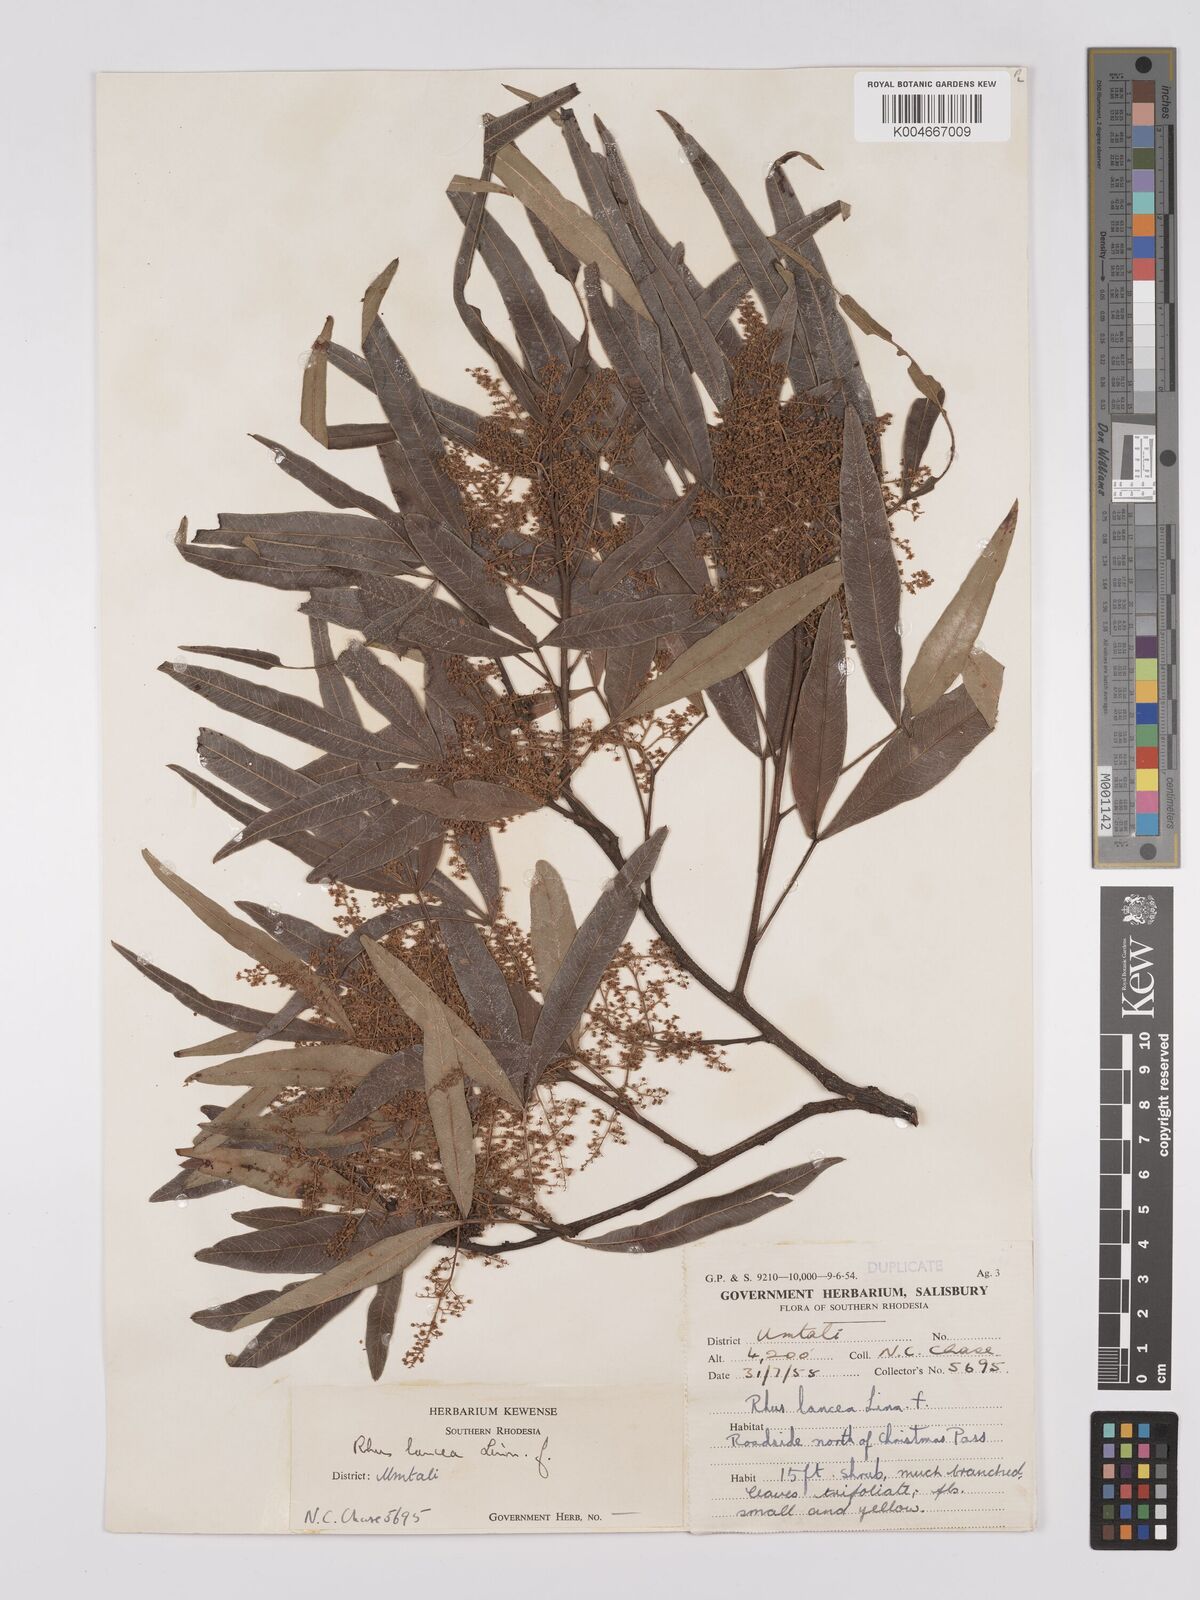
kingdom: Plantae
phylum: Tracheophyta
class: Magnoliopsida
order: Sapindales
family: Anacardiaceae
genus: Searsia
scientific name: Searsia lancea
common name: Cashew
